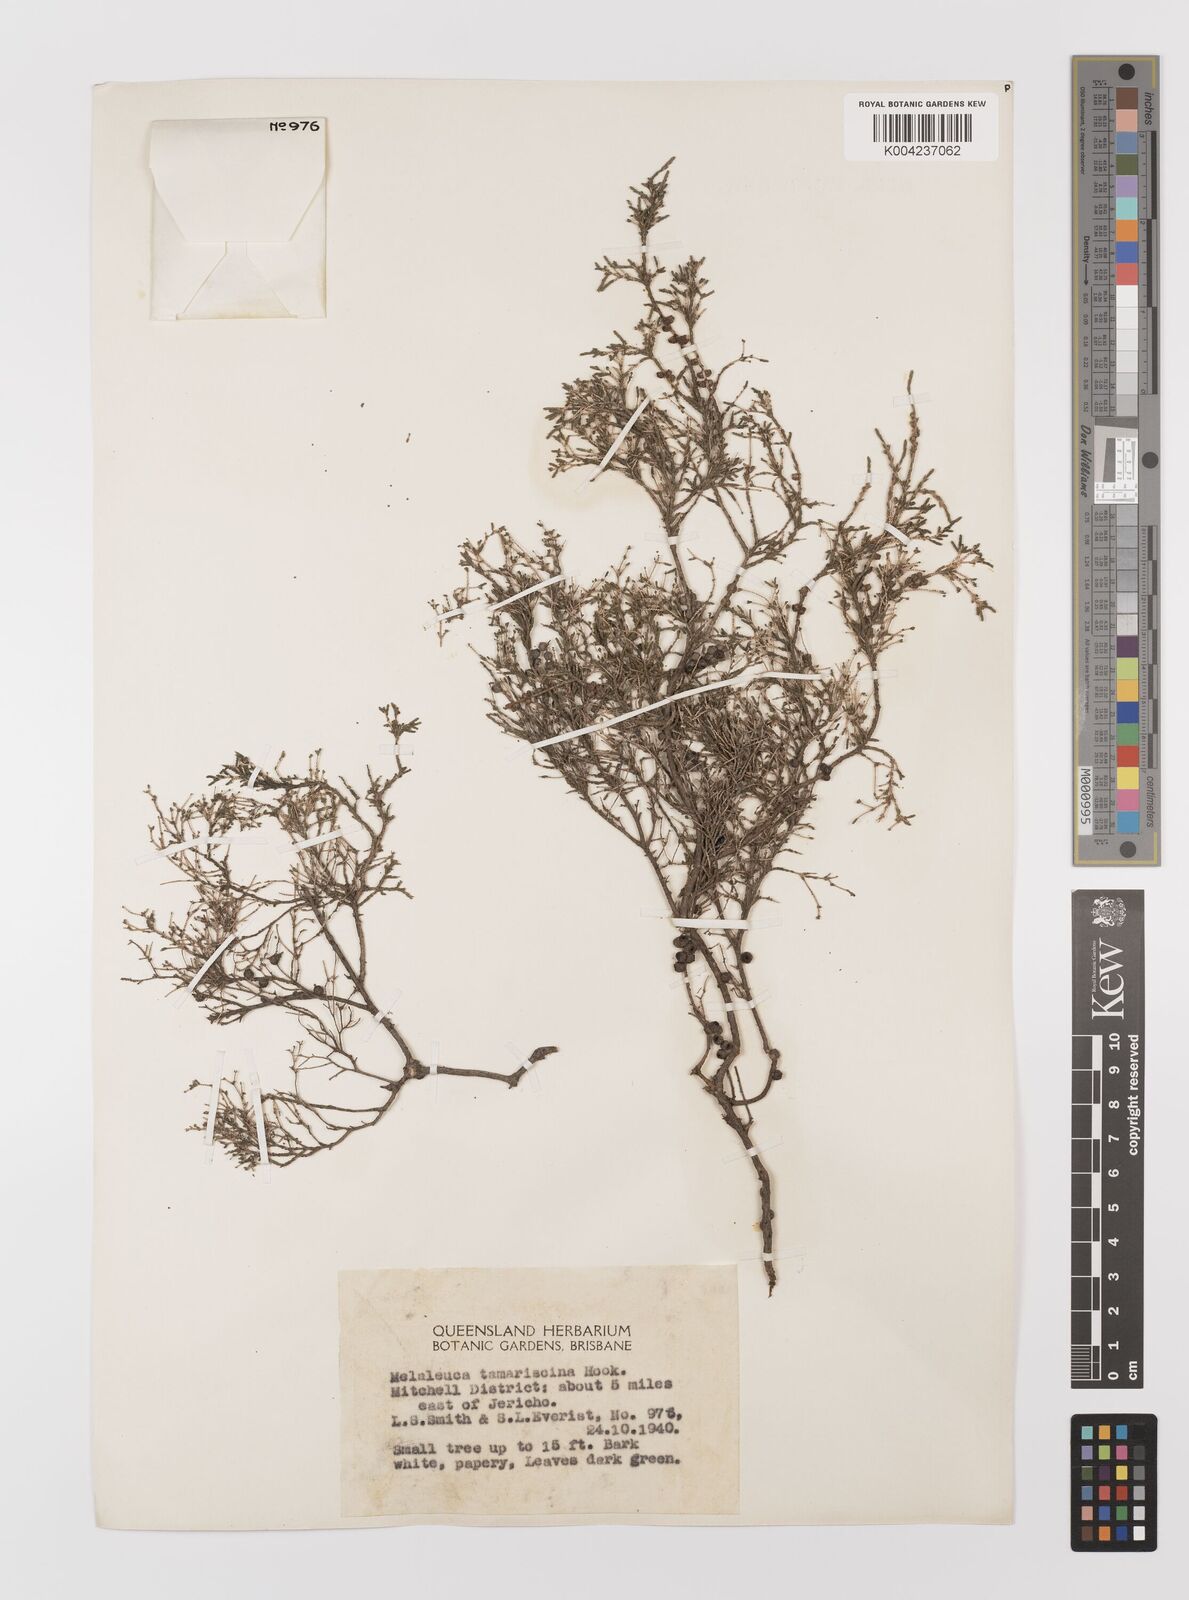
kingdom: Plantae
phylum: Tracheophyta
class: Magnoliopsida
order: Myrtales
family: Myrtaceae
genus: Melaleuca
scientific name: Melaleuca tamariscina
